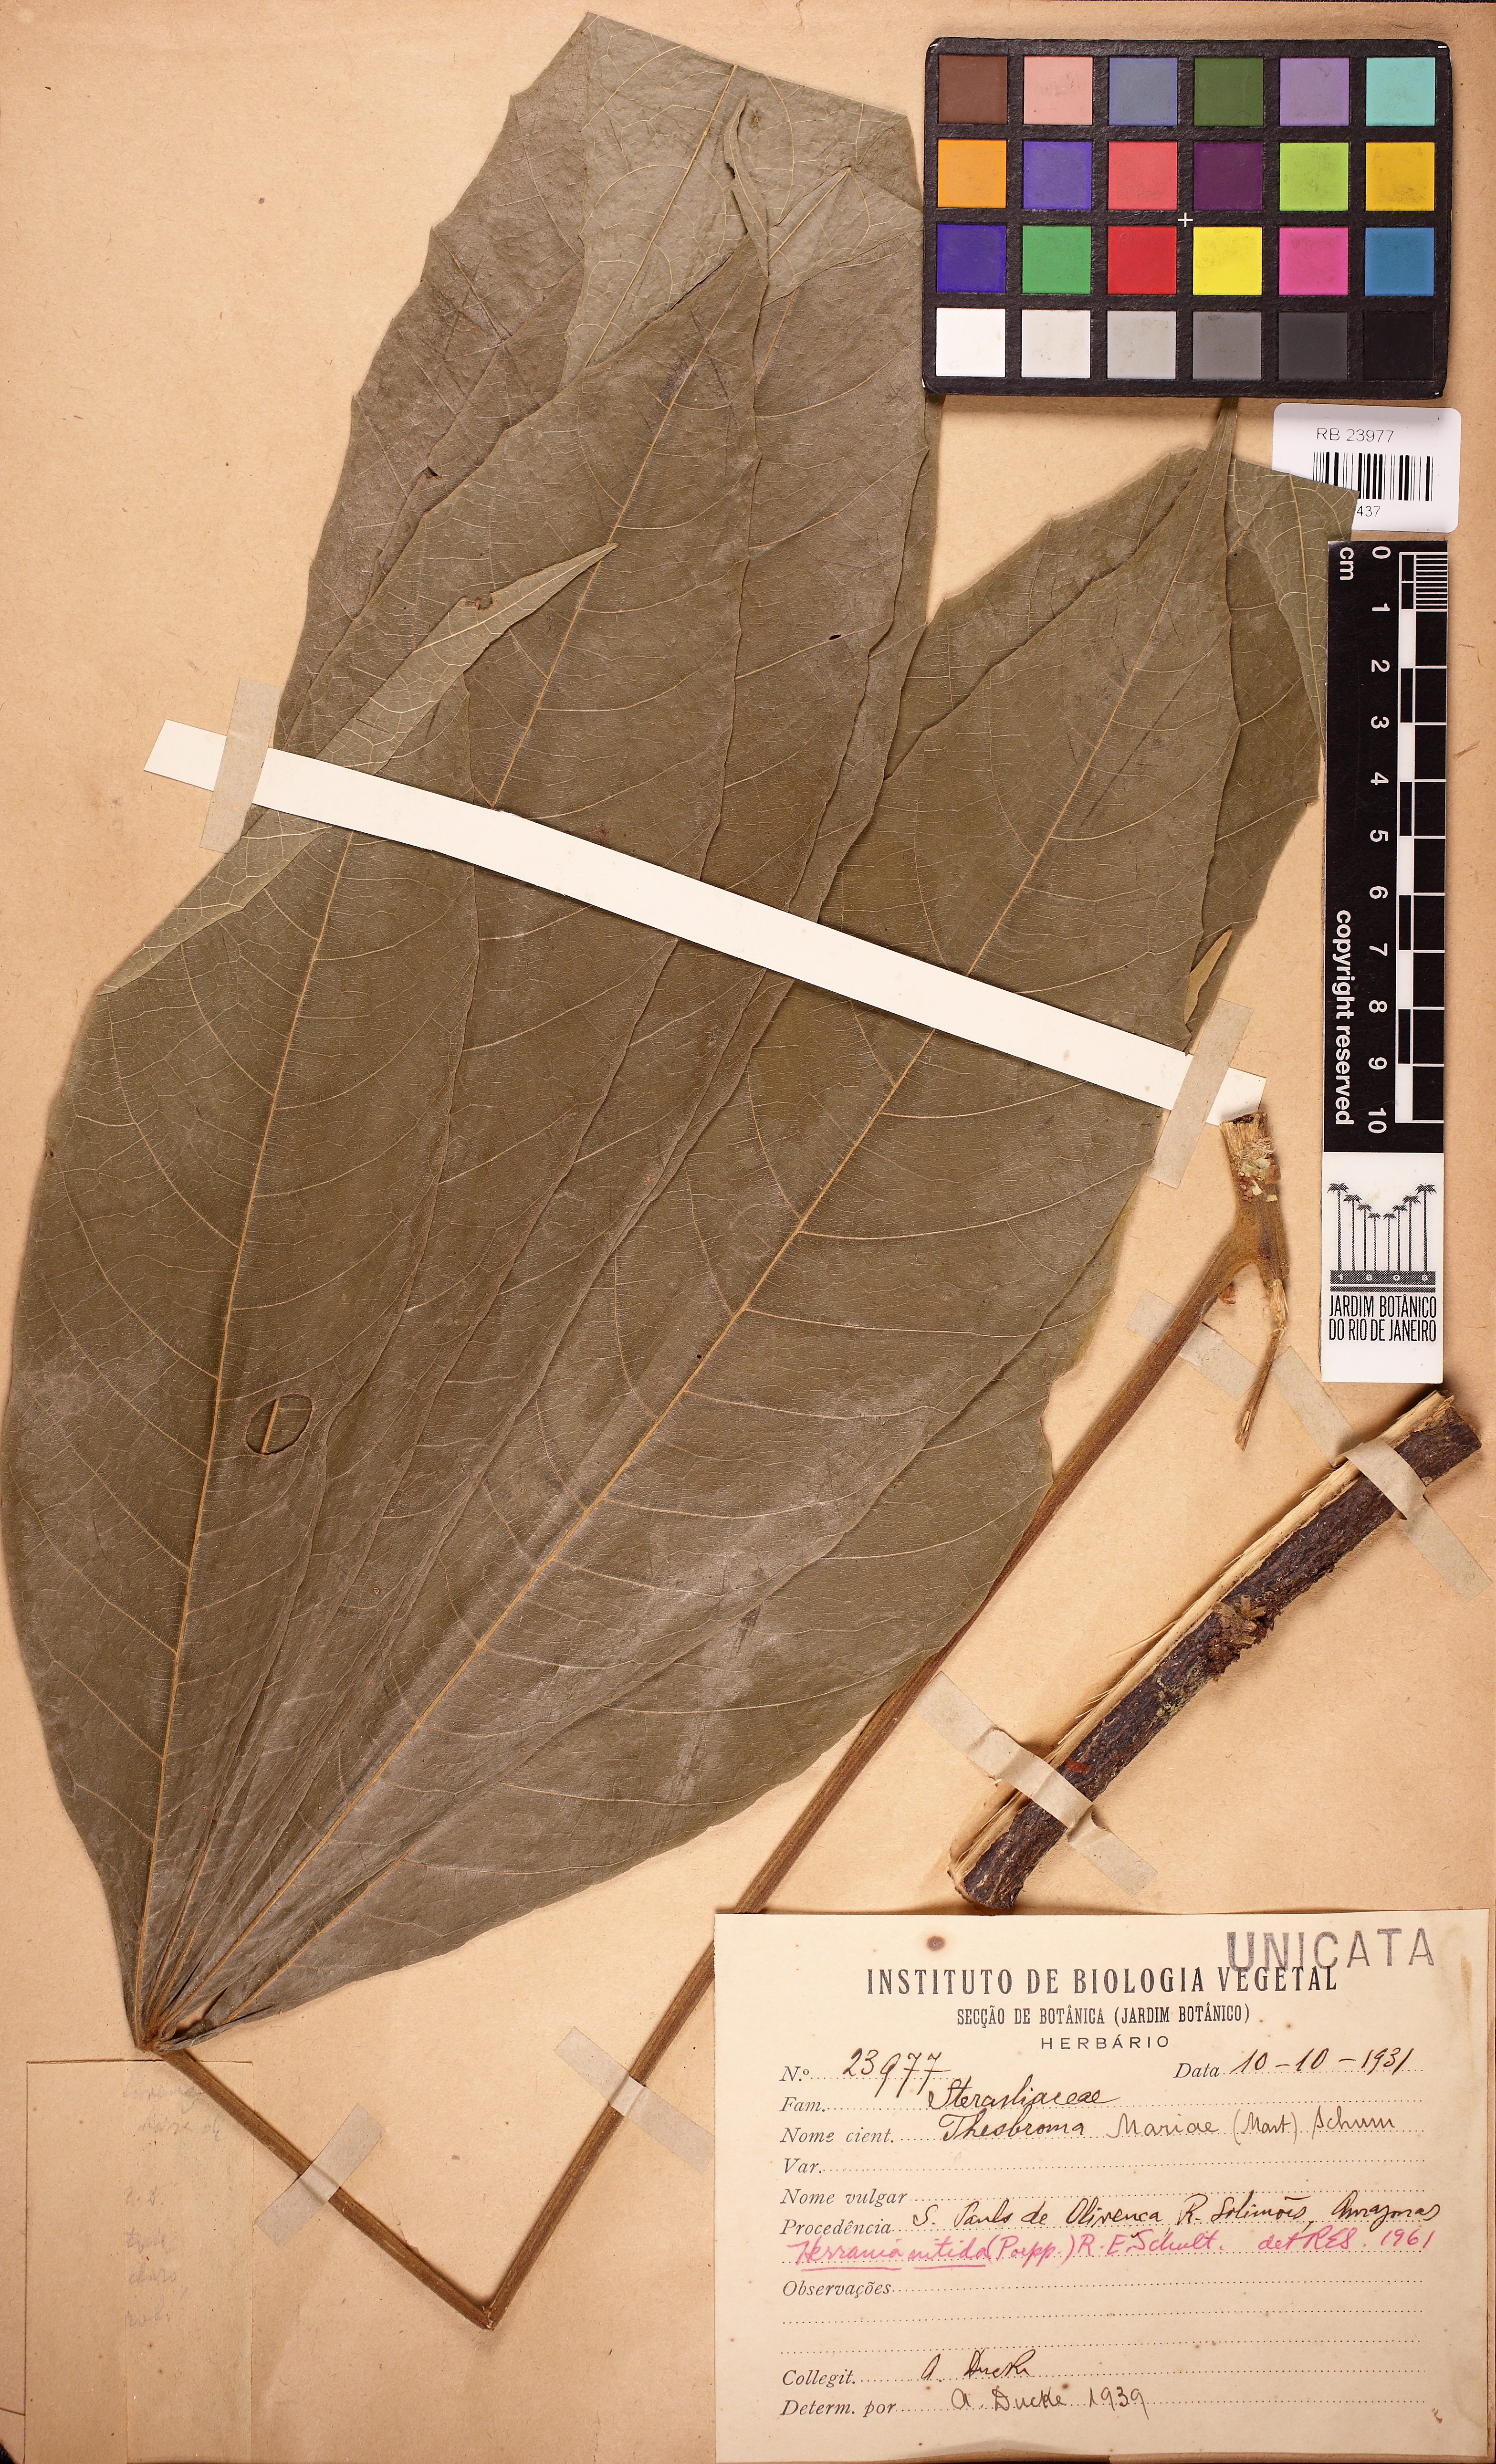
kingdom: Plantae
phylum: Tracheophyta
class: Magnoliopsida
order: Malvales
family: Malvaceae
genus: Herrania
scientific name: Herrania nitida
